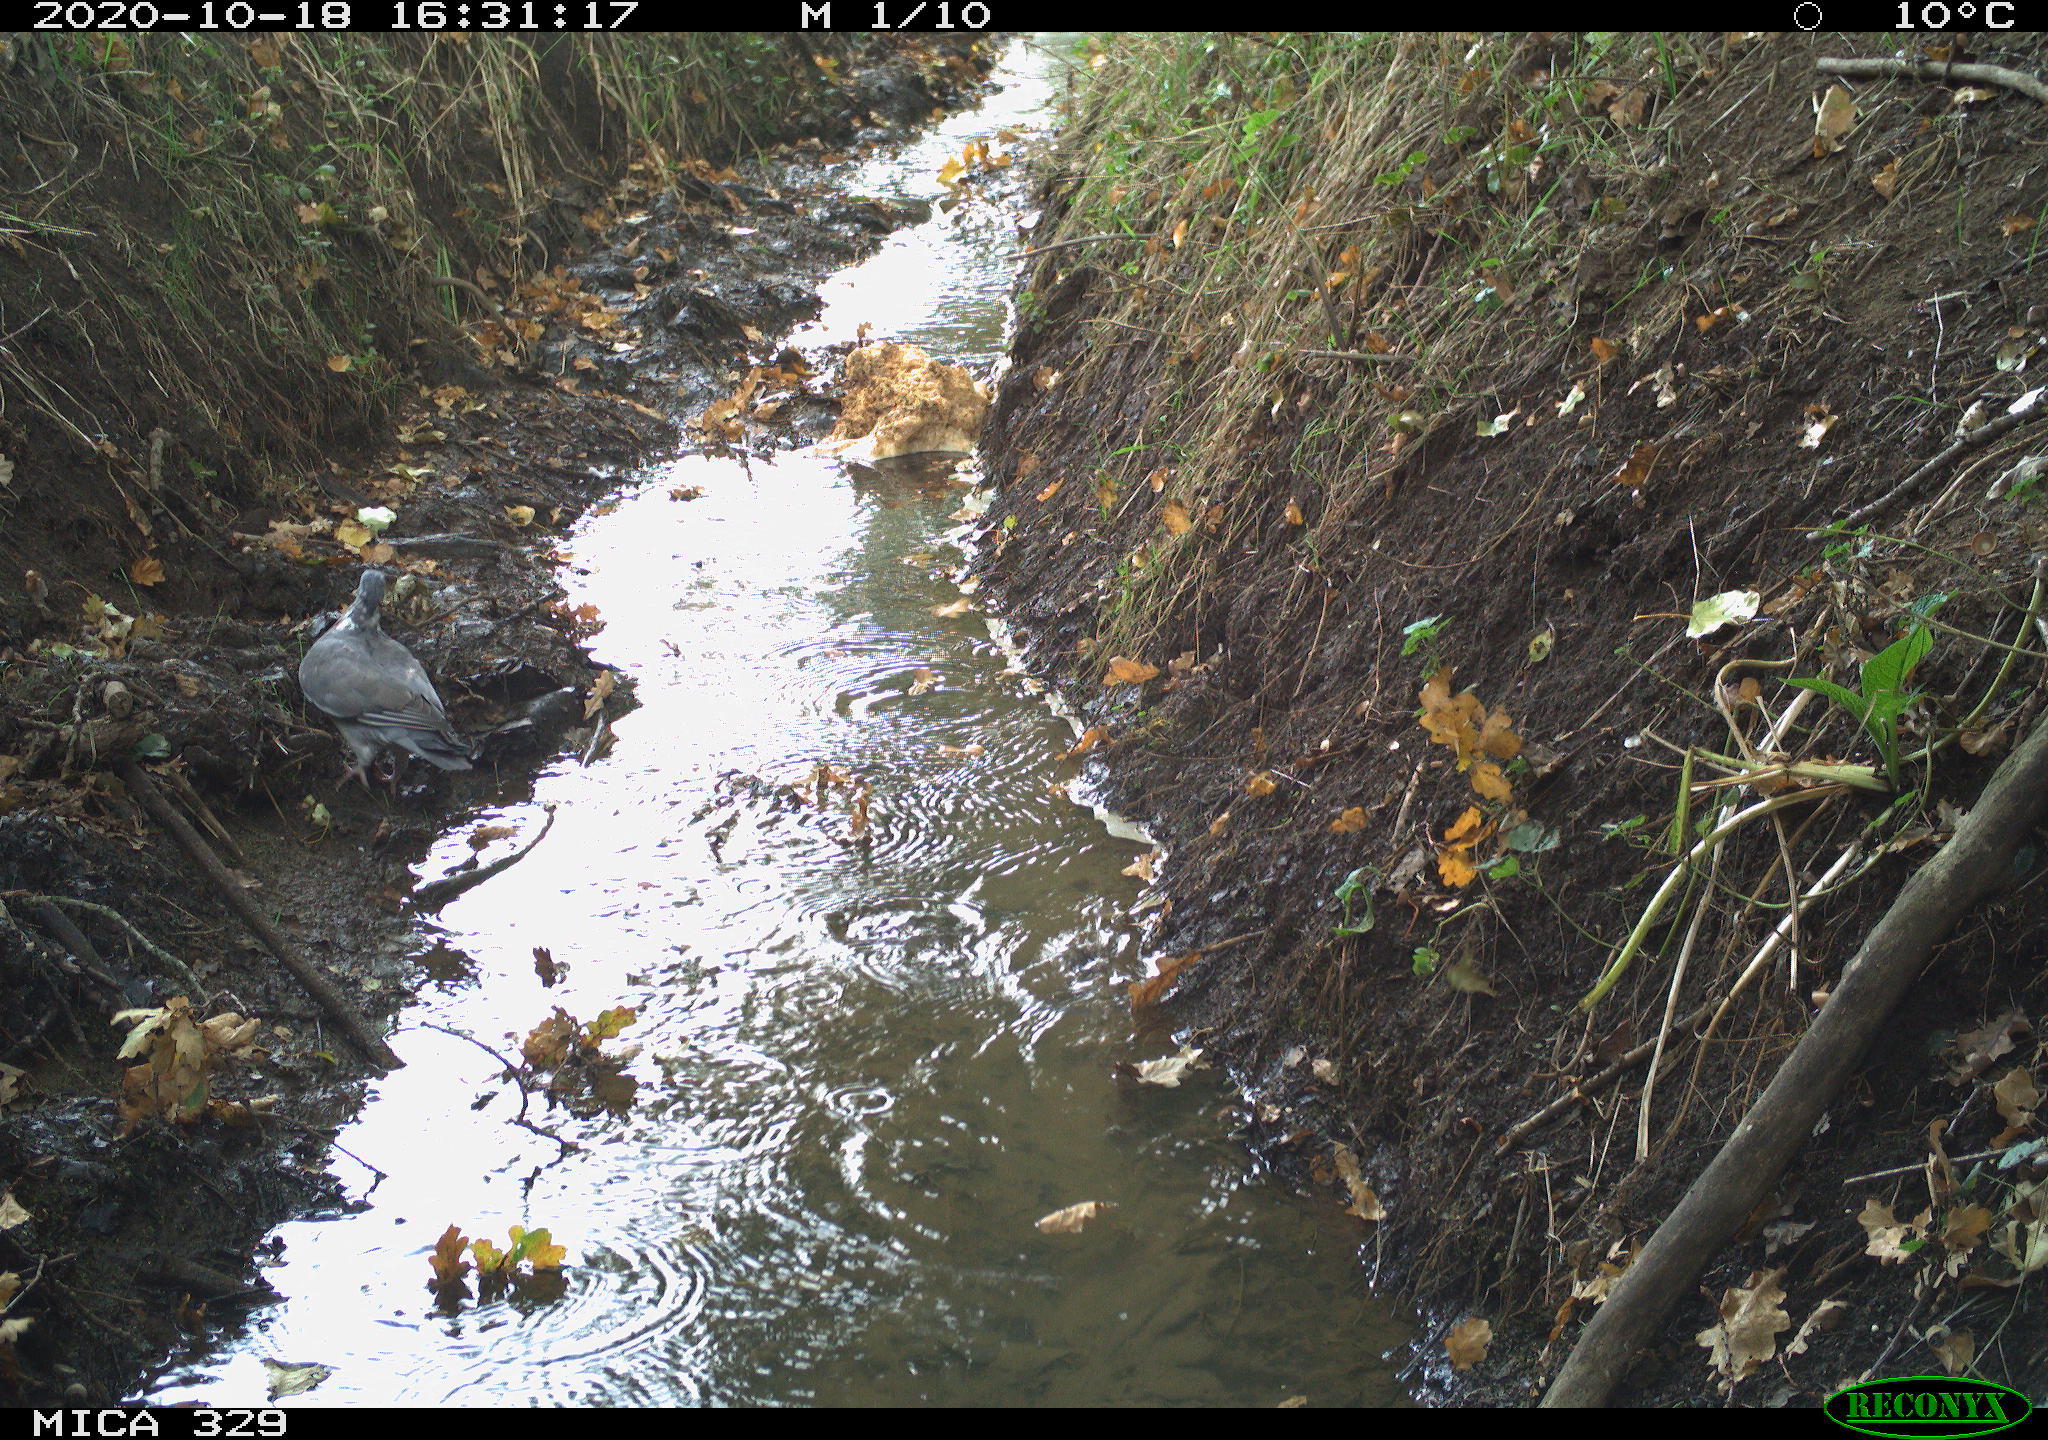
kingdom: Animalia
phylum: Chordata
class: Aves
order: Columbiformes
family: Columbidae
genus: Columba
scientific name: Columba palumbus
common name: Common wood pigeon
